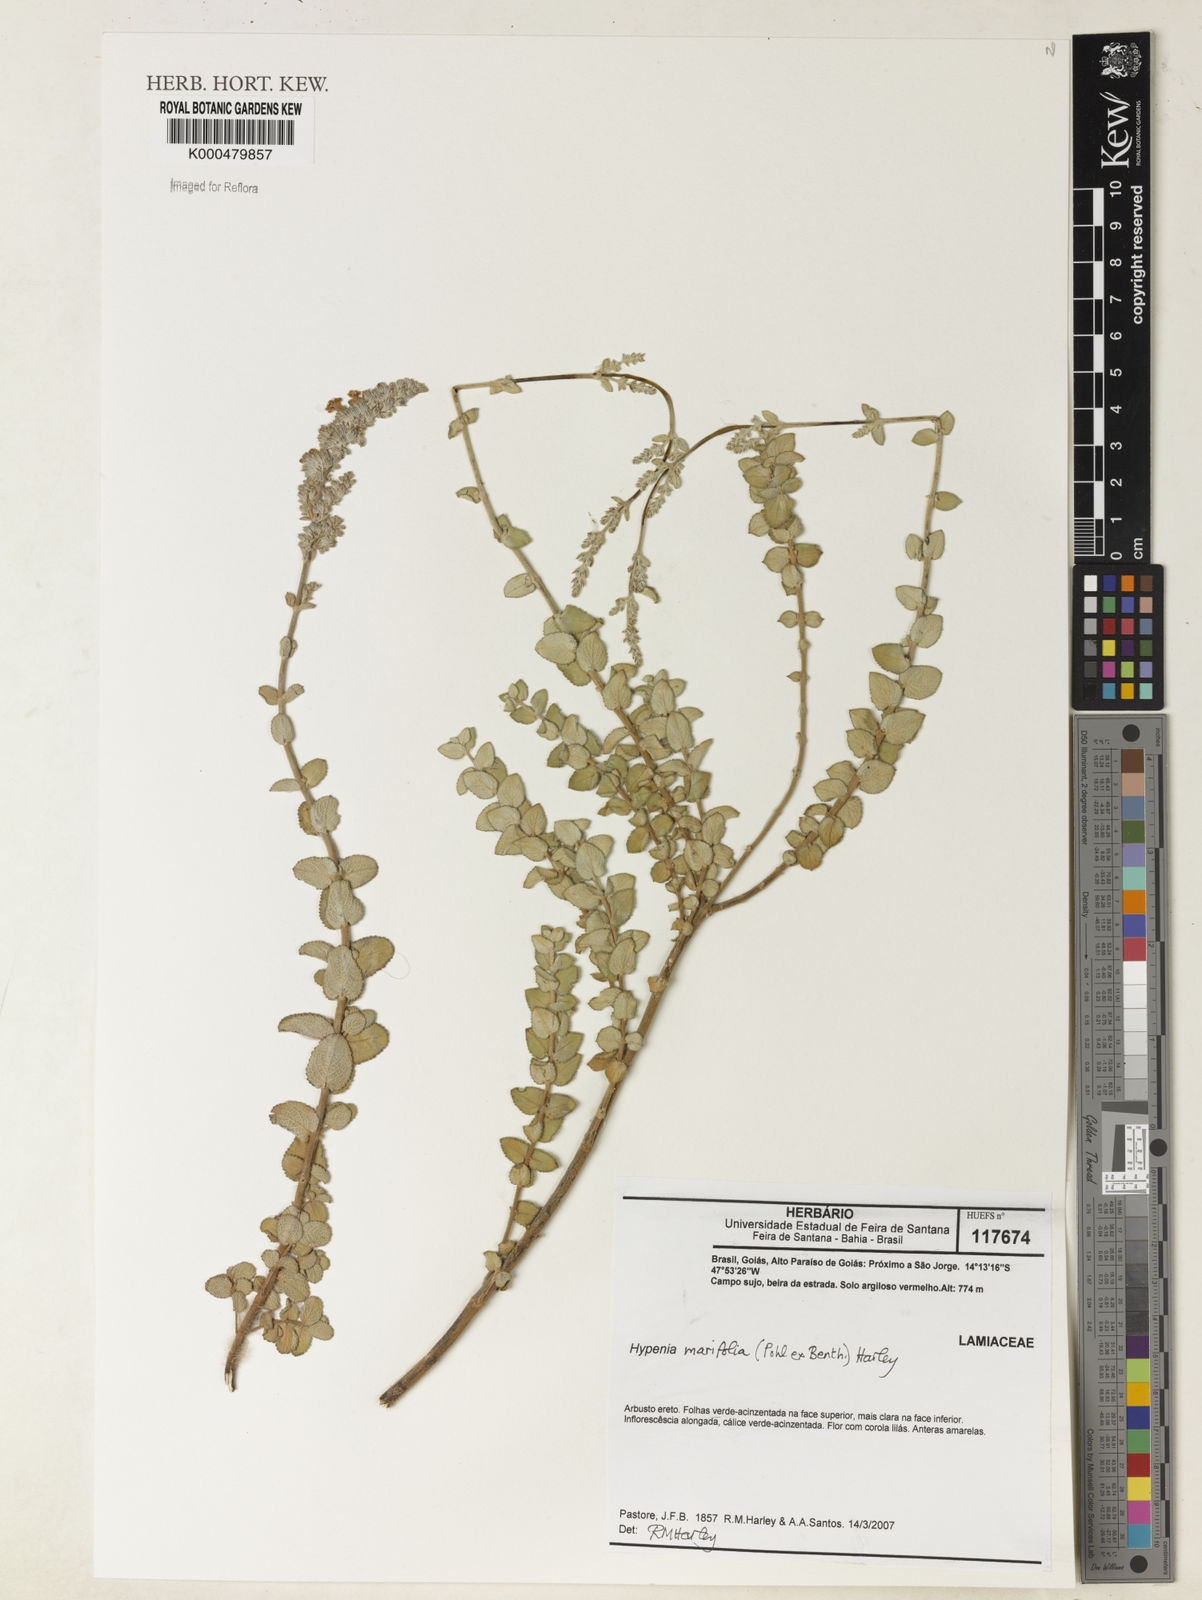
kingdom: Plantae
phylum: Tracheophyta
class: Magnoliopsida
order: Lamiales
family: Lamiaceae
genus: Hypenia
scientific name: Hypenia marifolia
